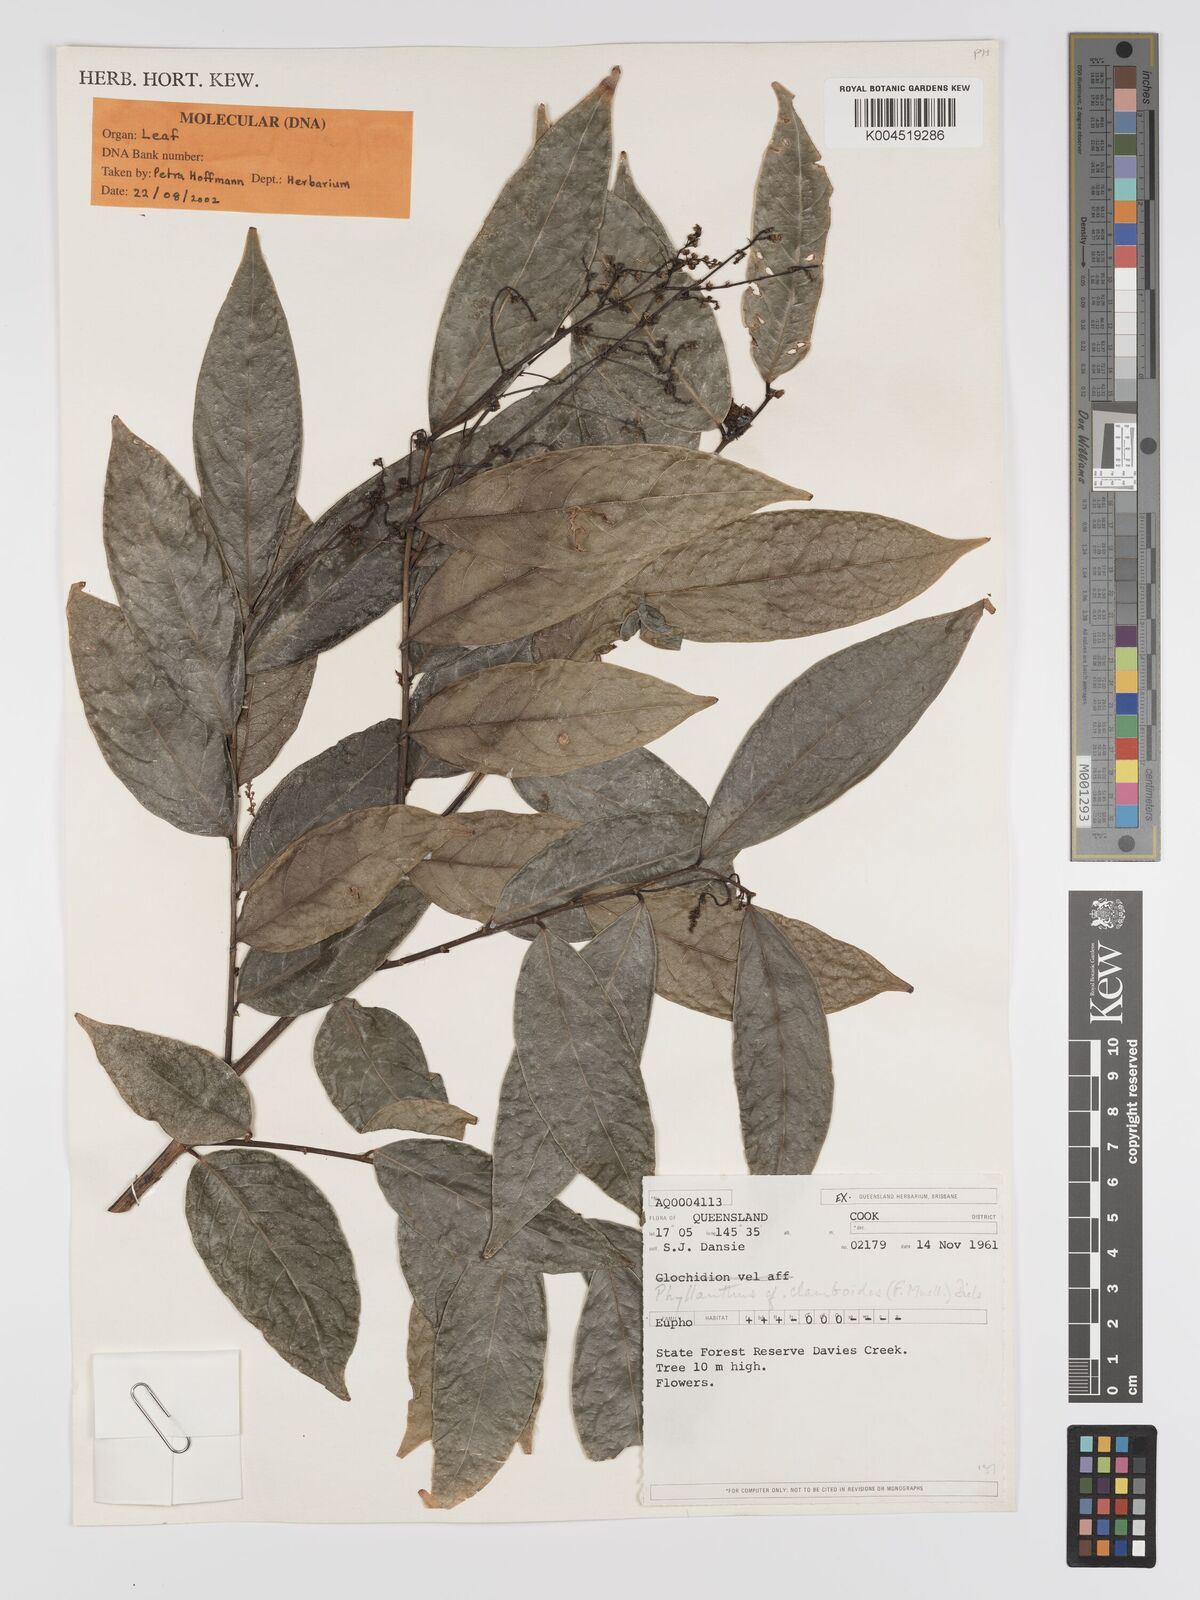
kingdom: Plantae
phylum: Tracheophyta
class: Magnoliopsida
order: Malpighiales
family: Phyllanthaceae
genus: Phyllanthus
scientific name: Phyllanthus clamboides
